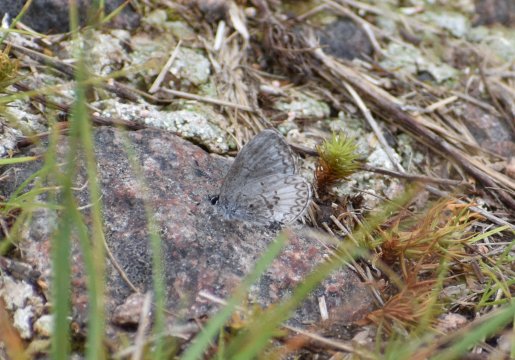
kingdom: Animalia
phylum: Arthropoda
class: Insecta
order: Lepidoptera
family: Lycaenidae
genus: Celastrina
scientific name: Celastrina lucia
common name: Northern Spring Azure
